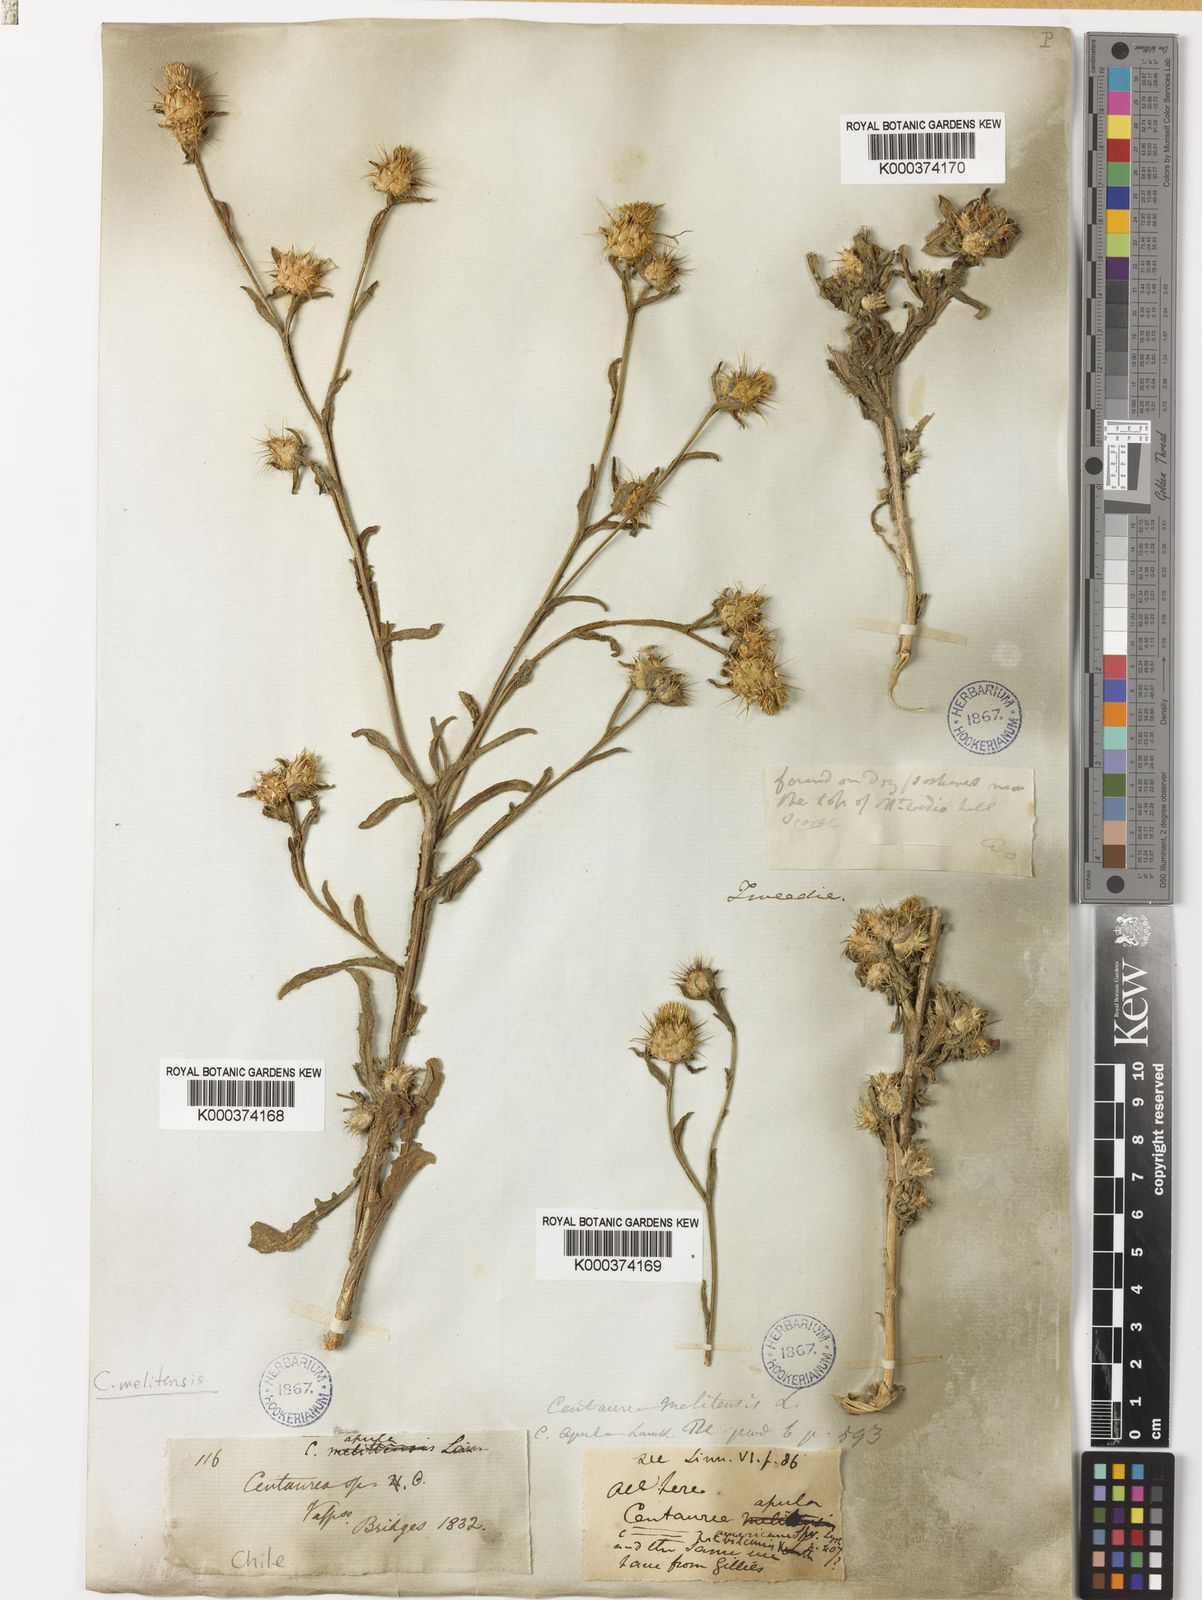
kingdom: Plantae
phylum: Tracheophyta
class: Magnoliopsida
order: Asterales
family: Asteraceae
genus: Centaurea
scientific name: Centaurea melitensis
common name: Maltese star-thistle
